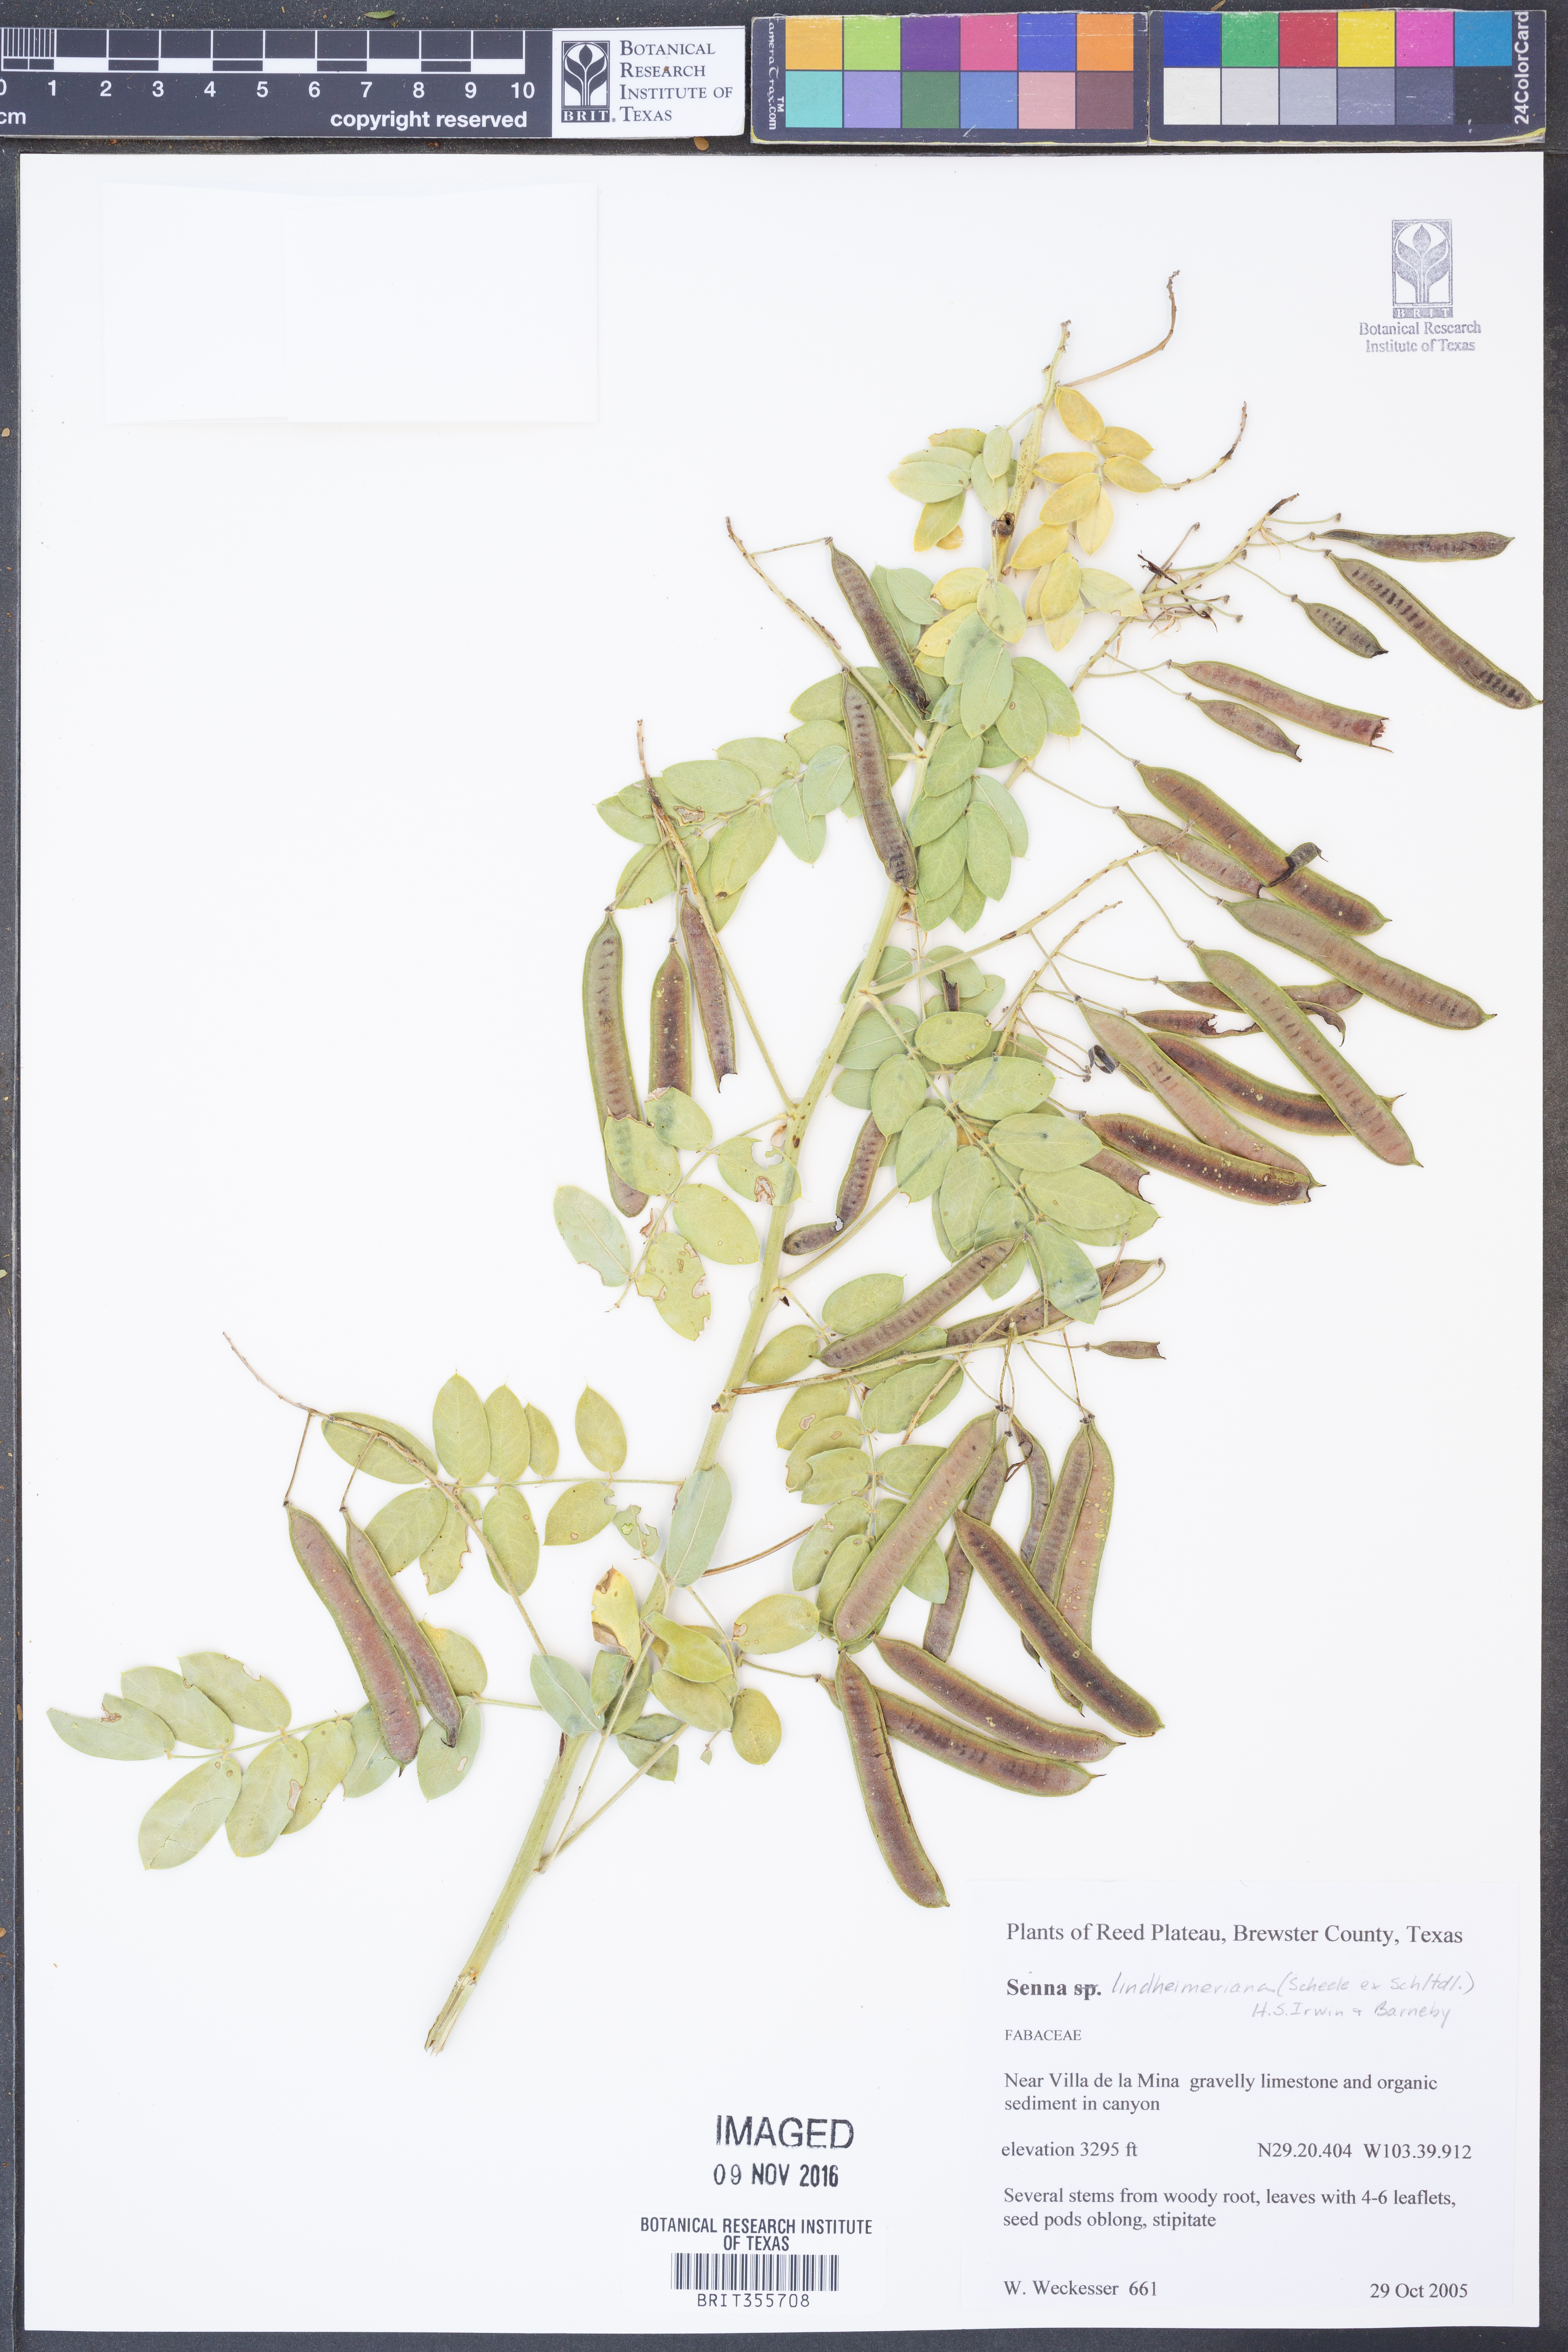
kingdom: Plantae
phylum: Tracheophyta
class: Magnoliopsida
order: Fabales
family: Fabaceae
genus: Senna
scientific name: Senna lindheimeriana
